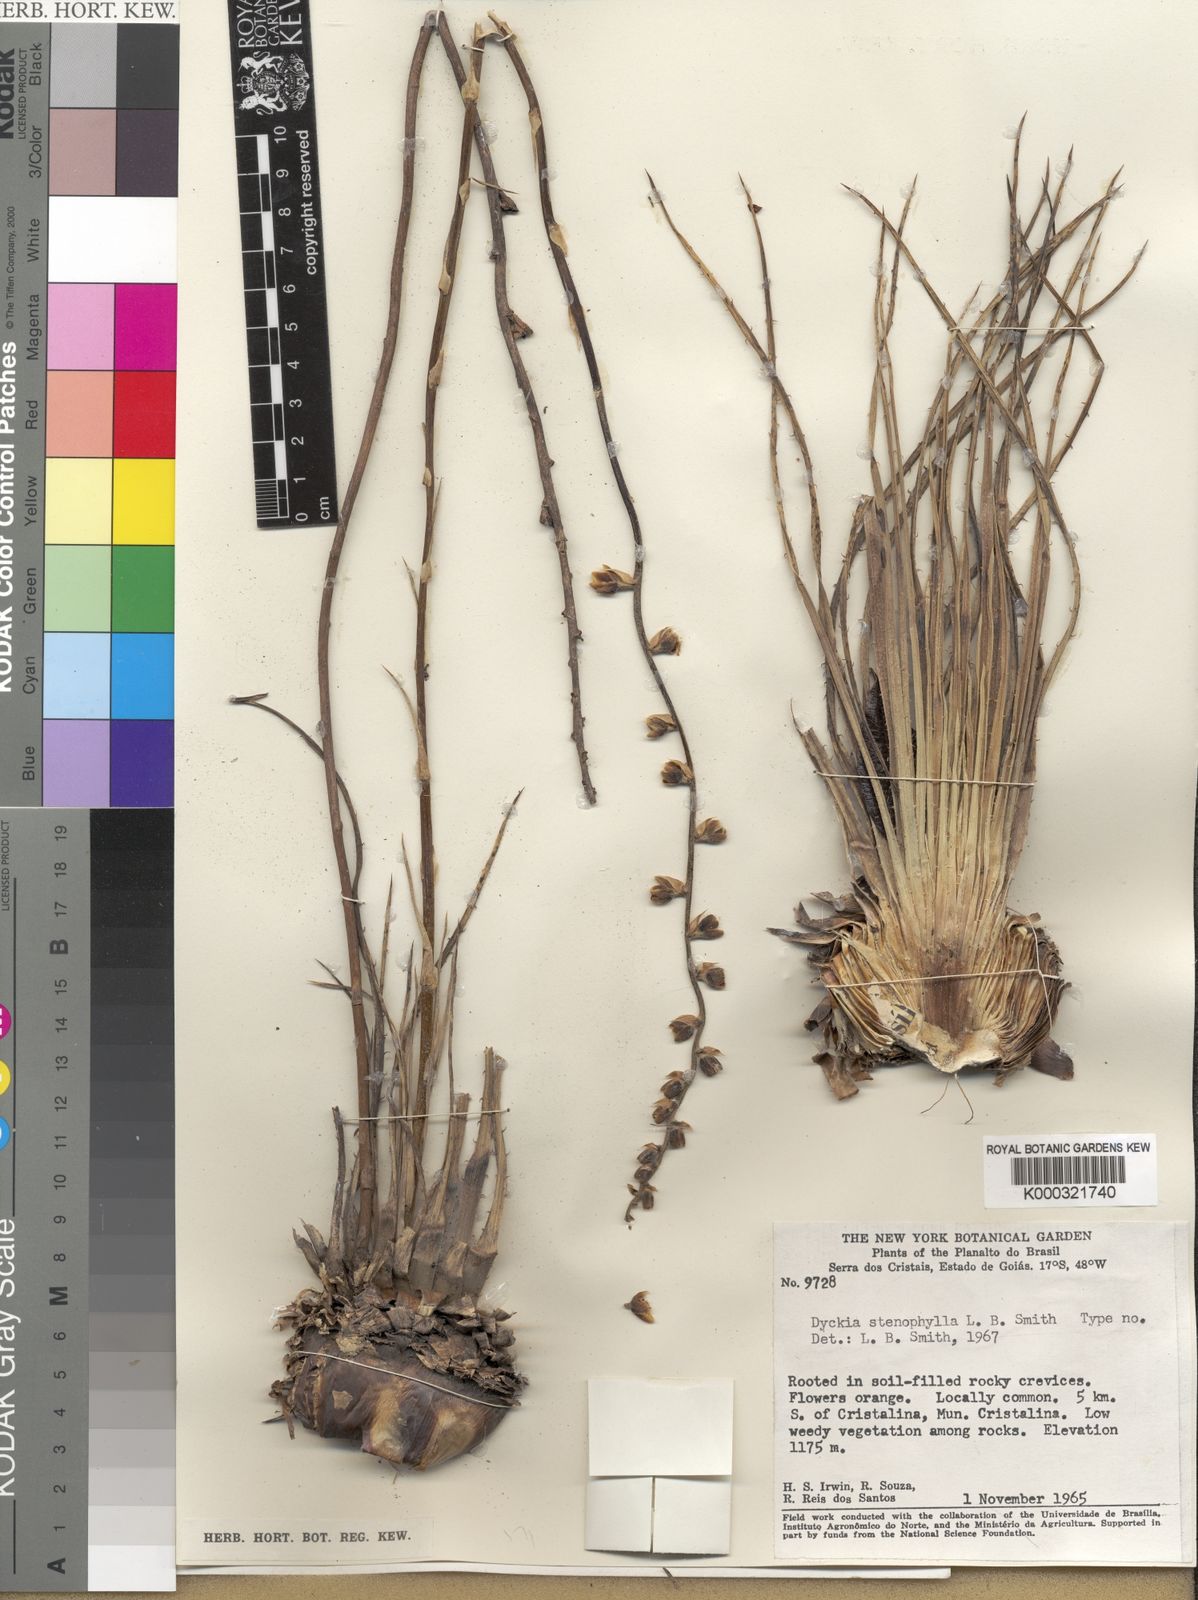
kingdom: Plantae
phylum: Tracheophyta
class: Liliopsida
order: Poales
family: Bromeliaceae
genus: Dyckia
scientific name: Dyckia stenophylla
